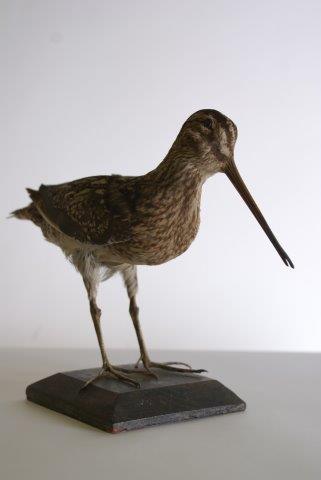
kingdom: Animalia
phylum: Chordata
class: Aves
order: Charadriiformes
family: Scolopacidae
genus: Gallinago
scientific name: Gallinago gallinago
